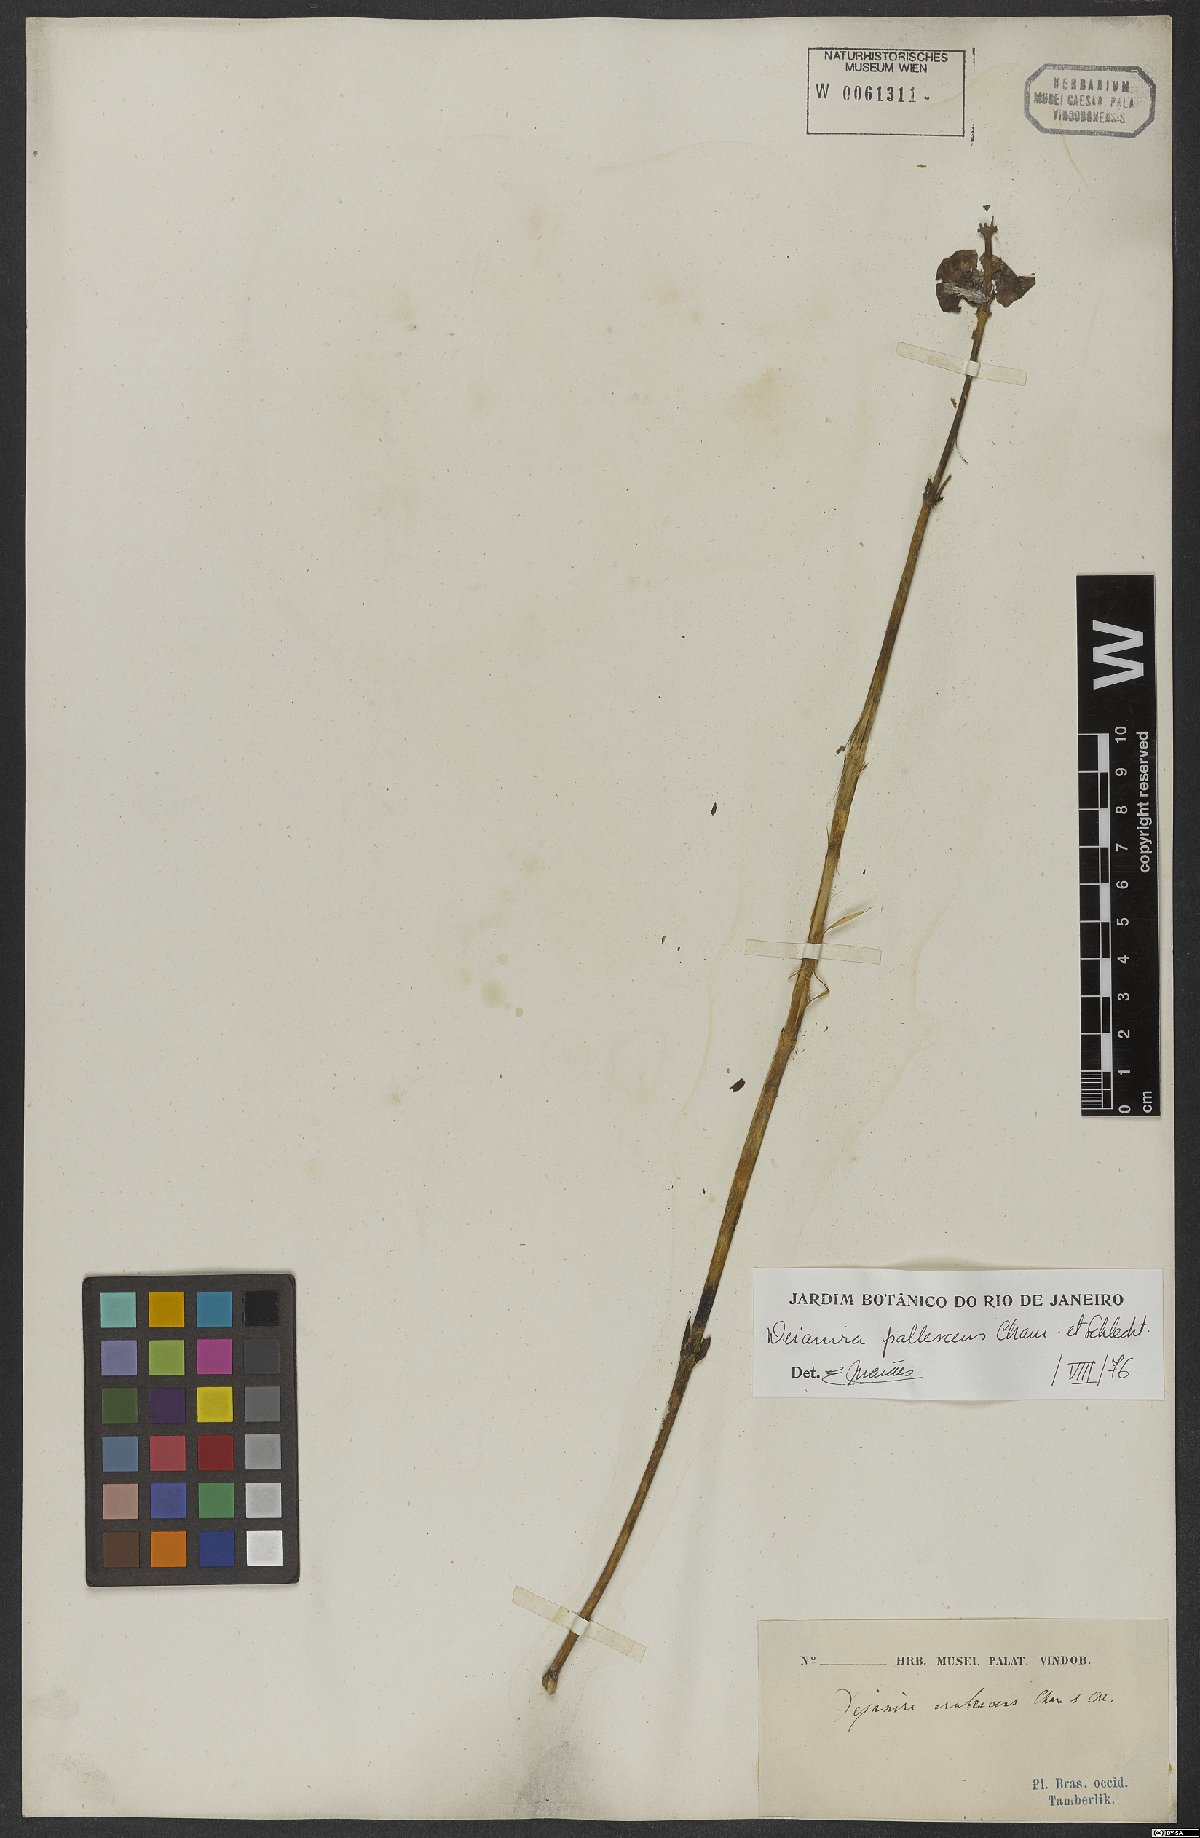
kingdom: Plantae
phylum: Tracheophyta
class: Magnoliopsida
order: Gentianales
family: Gentianaceae
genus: Deianira
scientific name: Deianira pallescens
